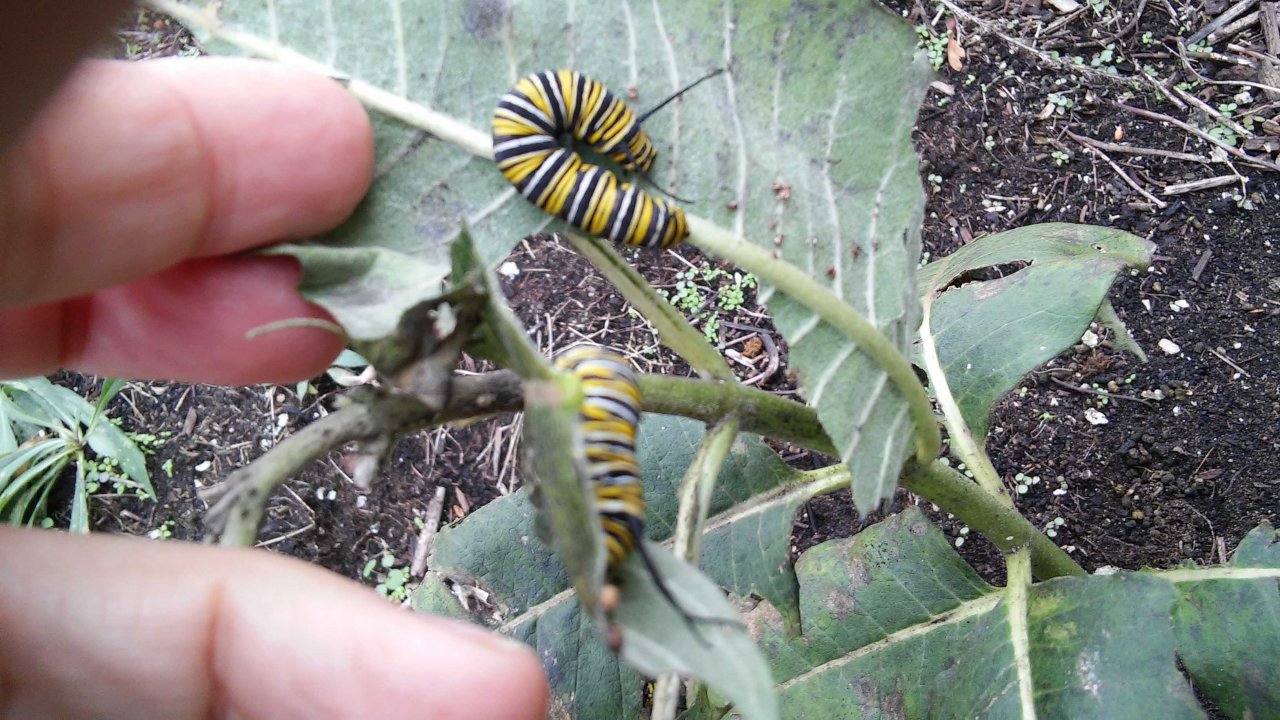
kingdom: Animalia
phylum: Arthropoda
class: Insecta
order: Lepidoptera
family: Nymphalidae
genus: Danaus
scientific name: Danaus plexippus
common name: Monarch
